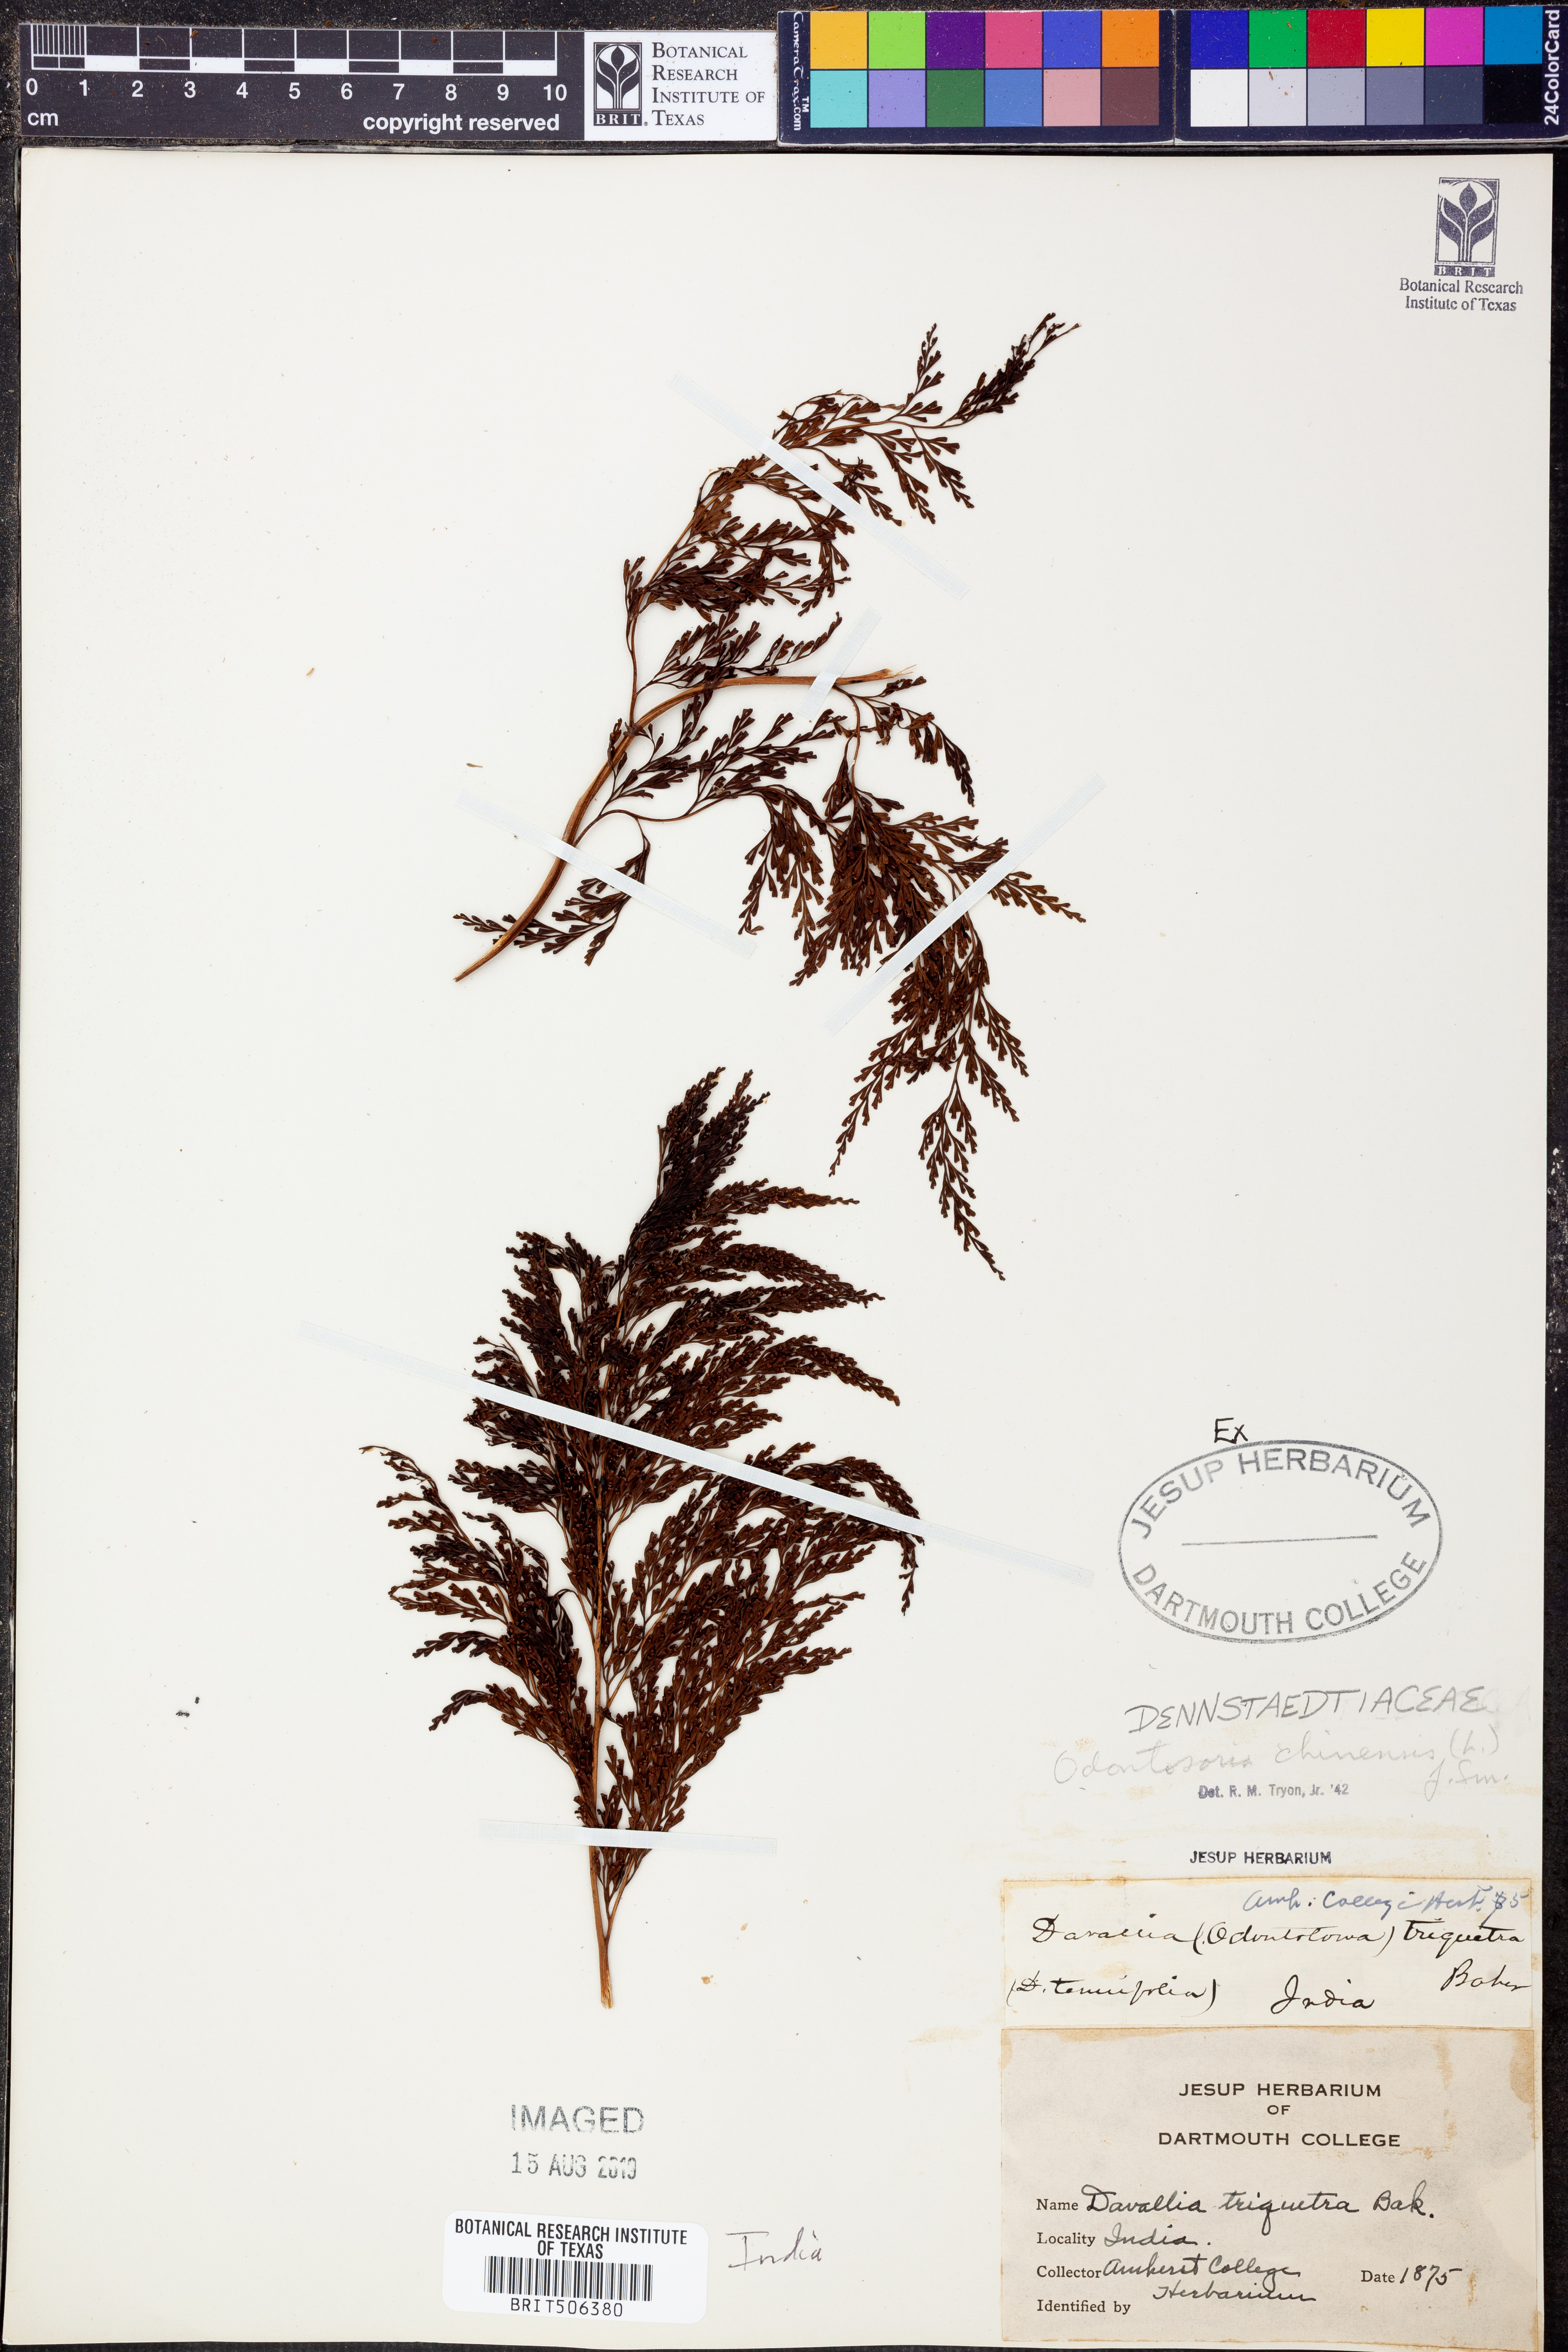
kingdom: Plantae
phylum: Tracheophyta
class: Polypodiopsida
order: Polypodiales
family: Lindsaeaceae
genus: Odontosoria
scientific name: Odontosoria chinensis
